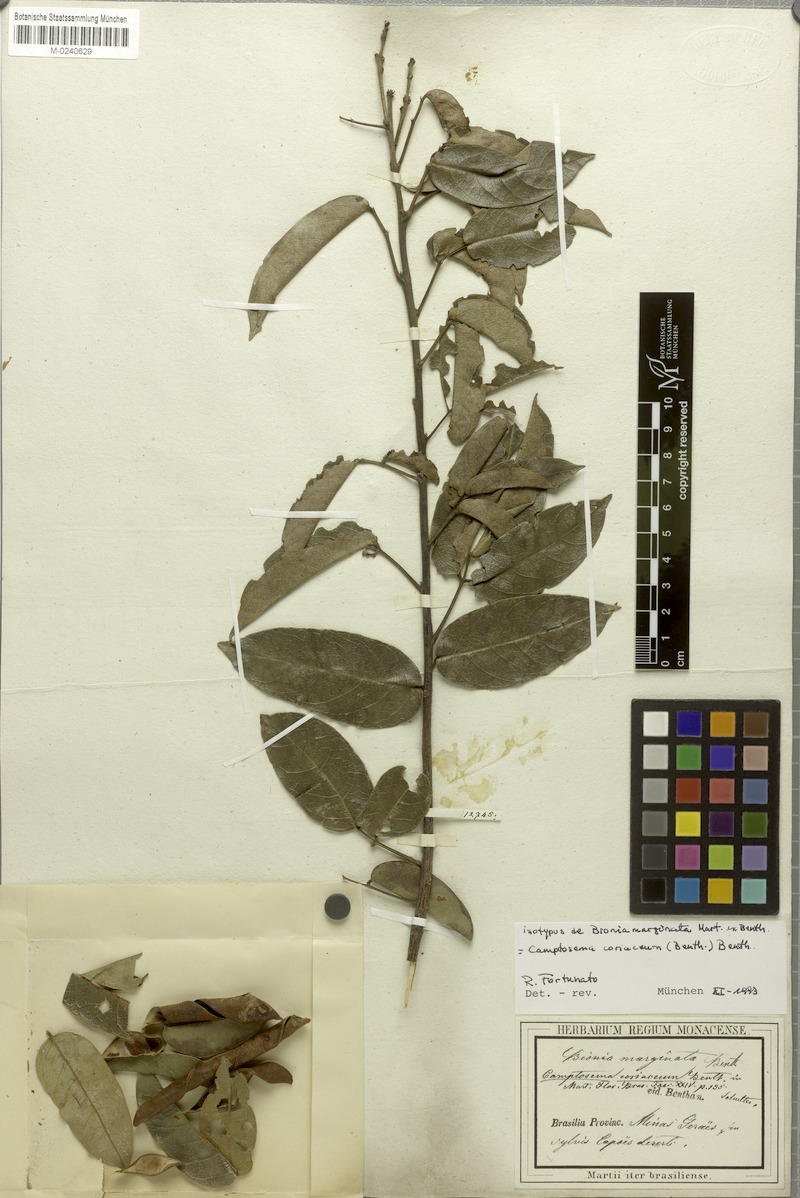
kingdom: Plantae
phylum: Tracheophyta
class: Magnoliopsida
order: Fabales
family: Fabaceae
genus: Camptosema
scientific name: Camptosema coriaceum
